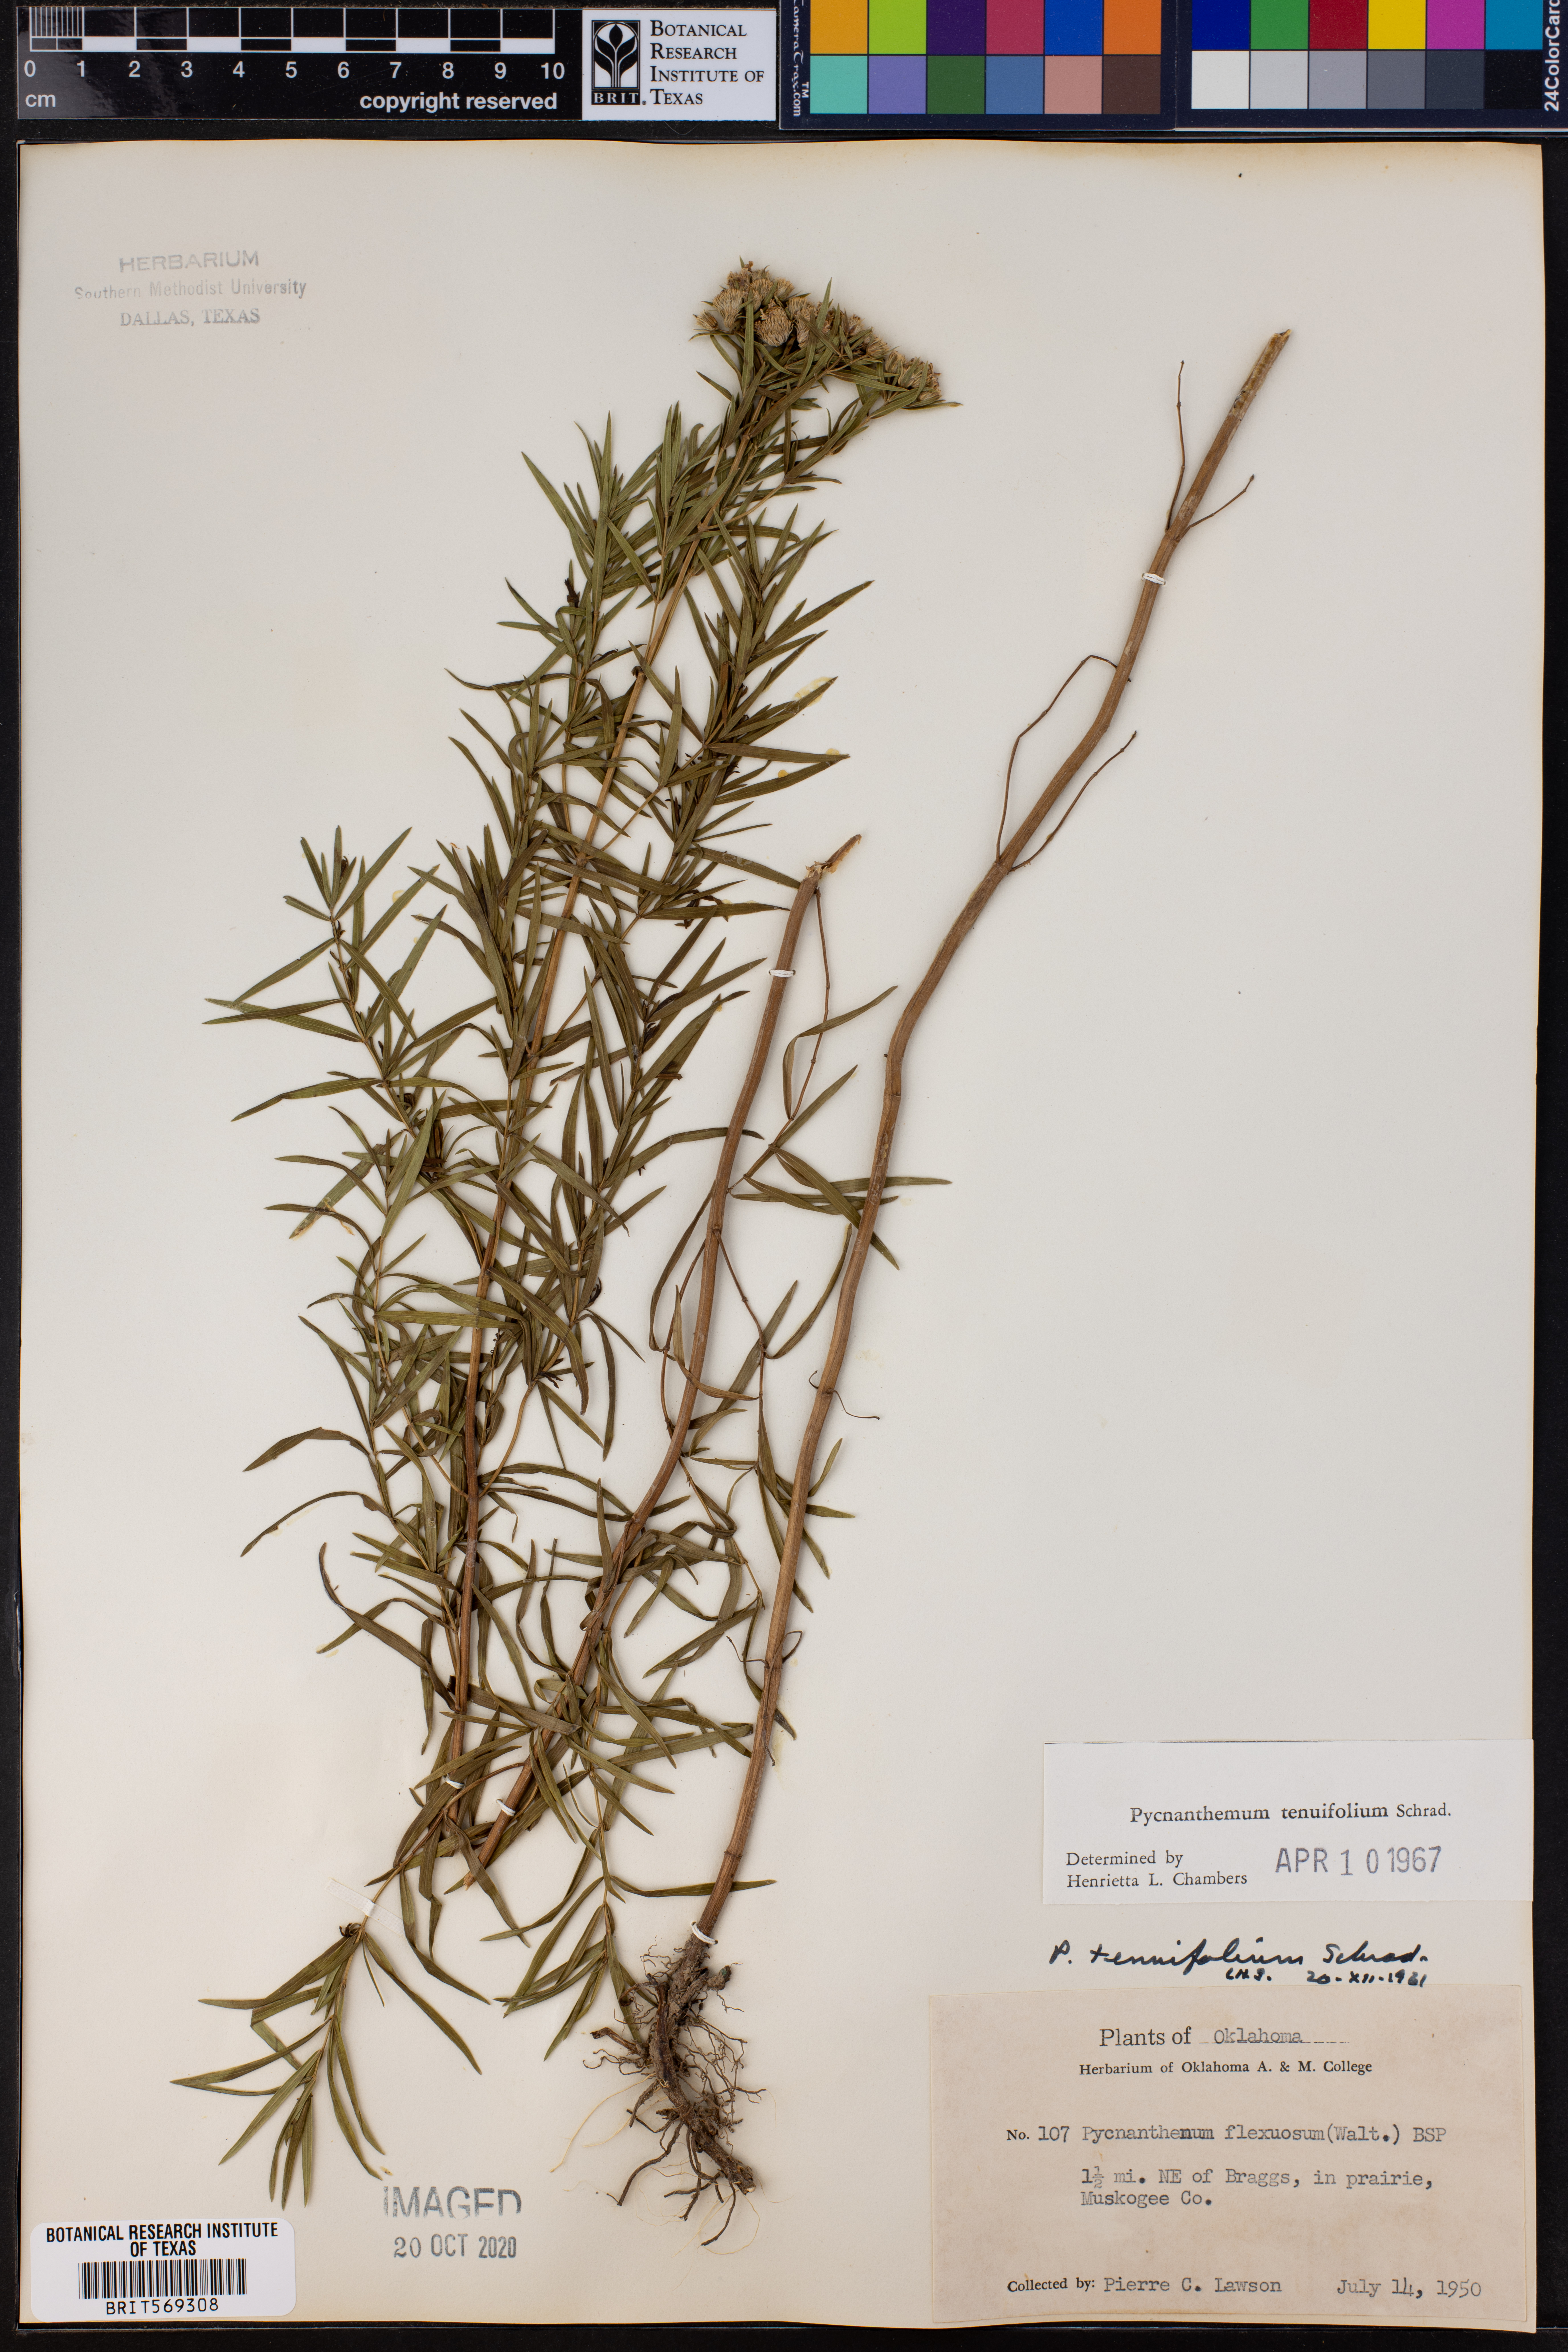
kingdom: Plantae
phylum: Tracheophyta
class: Magnoliopsida
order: Lamiales
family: Lamiaceae
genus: Pycnanthemum
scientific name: Pycnanthemum tenuifolium
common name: Narrow-leaf mountain-mint
